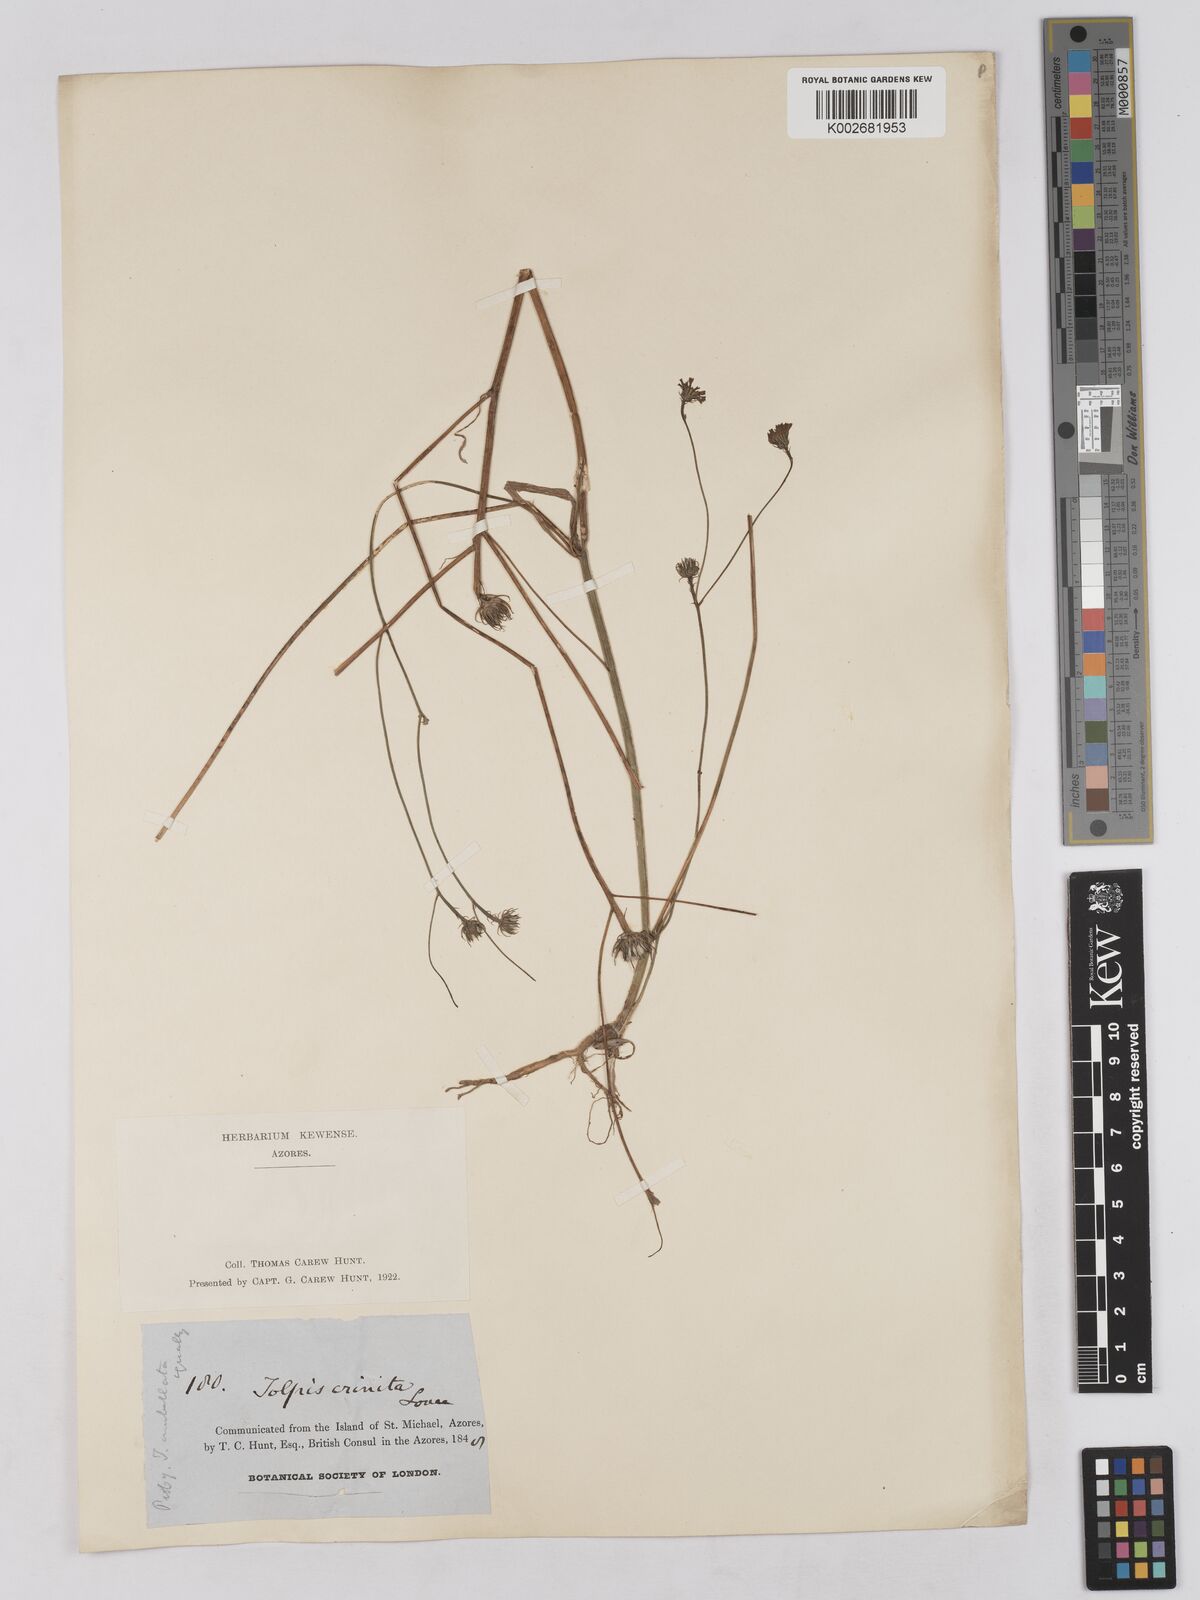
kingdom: Plantae
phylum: Tracheophyta
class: Magnoliopsida
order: Asterales
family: Asteraceae
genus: Tolpis
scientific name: Tolpis umbellata
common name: Yellow hawkweed
